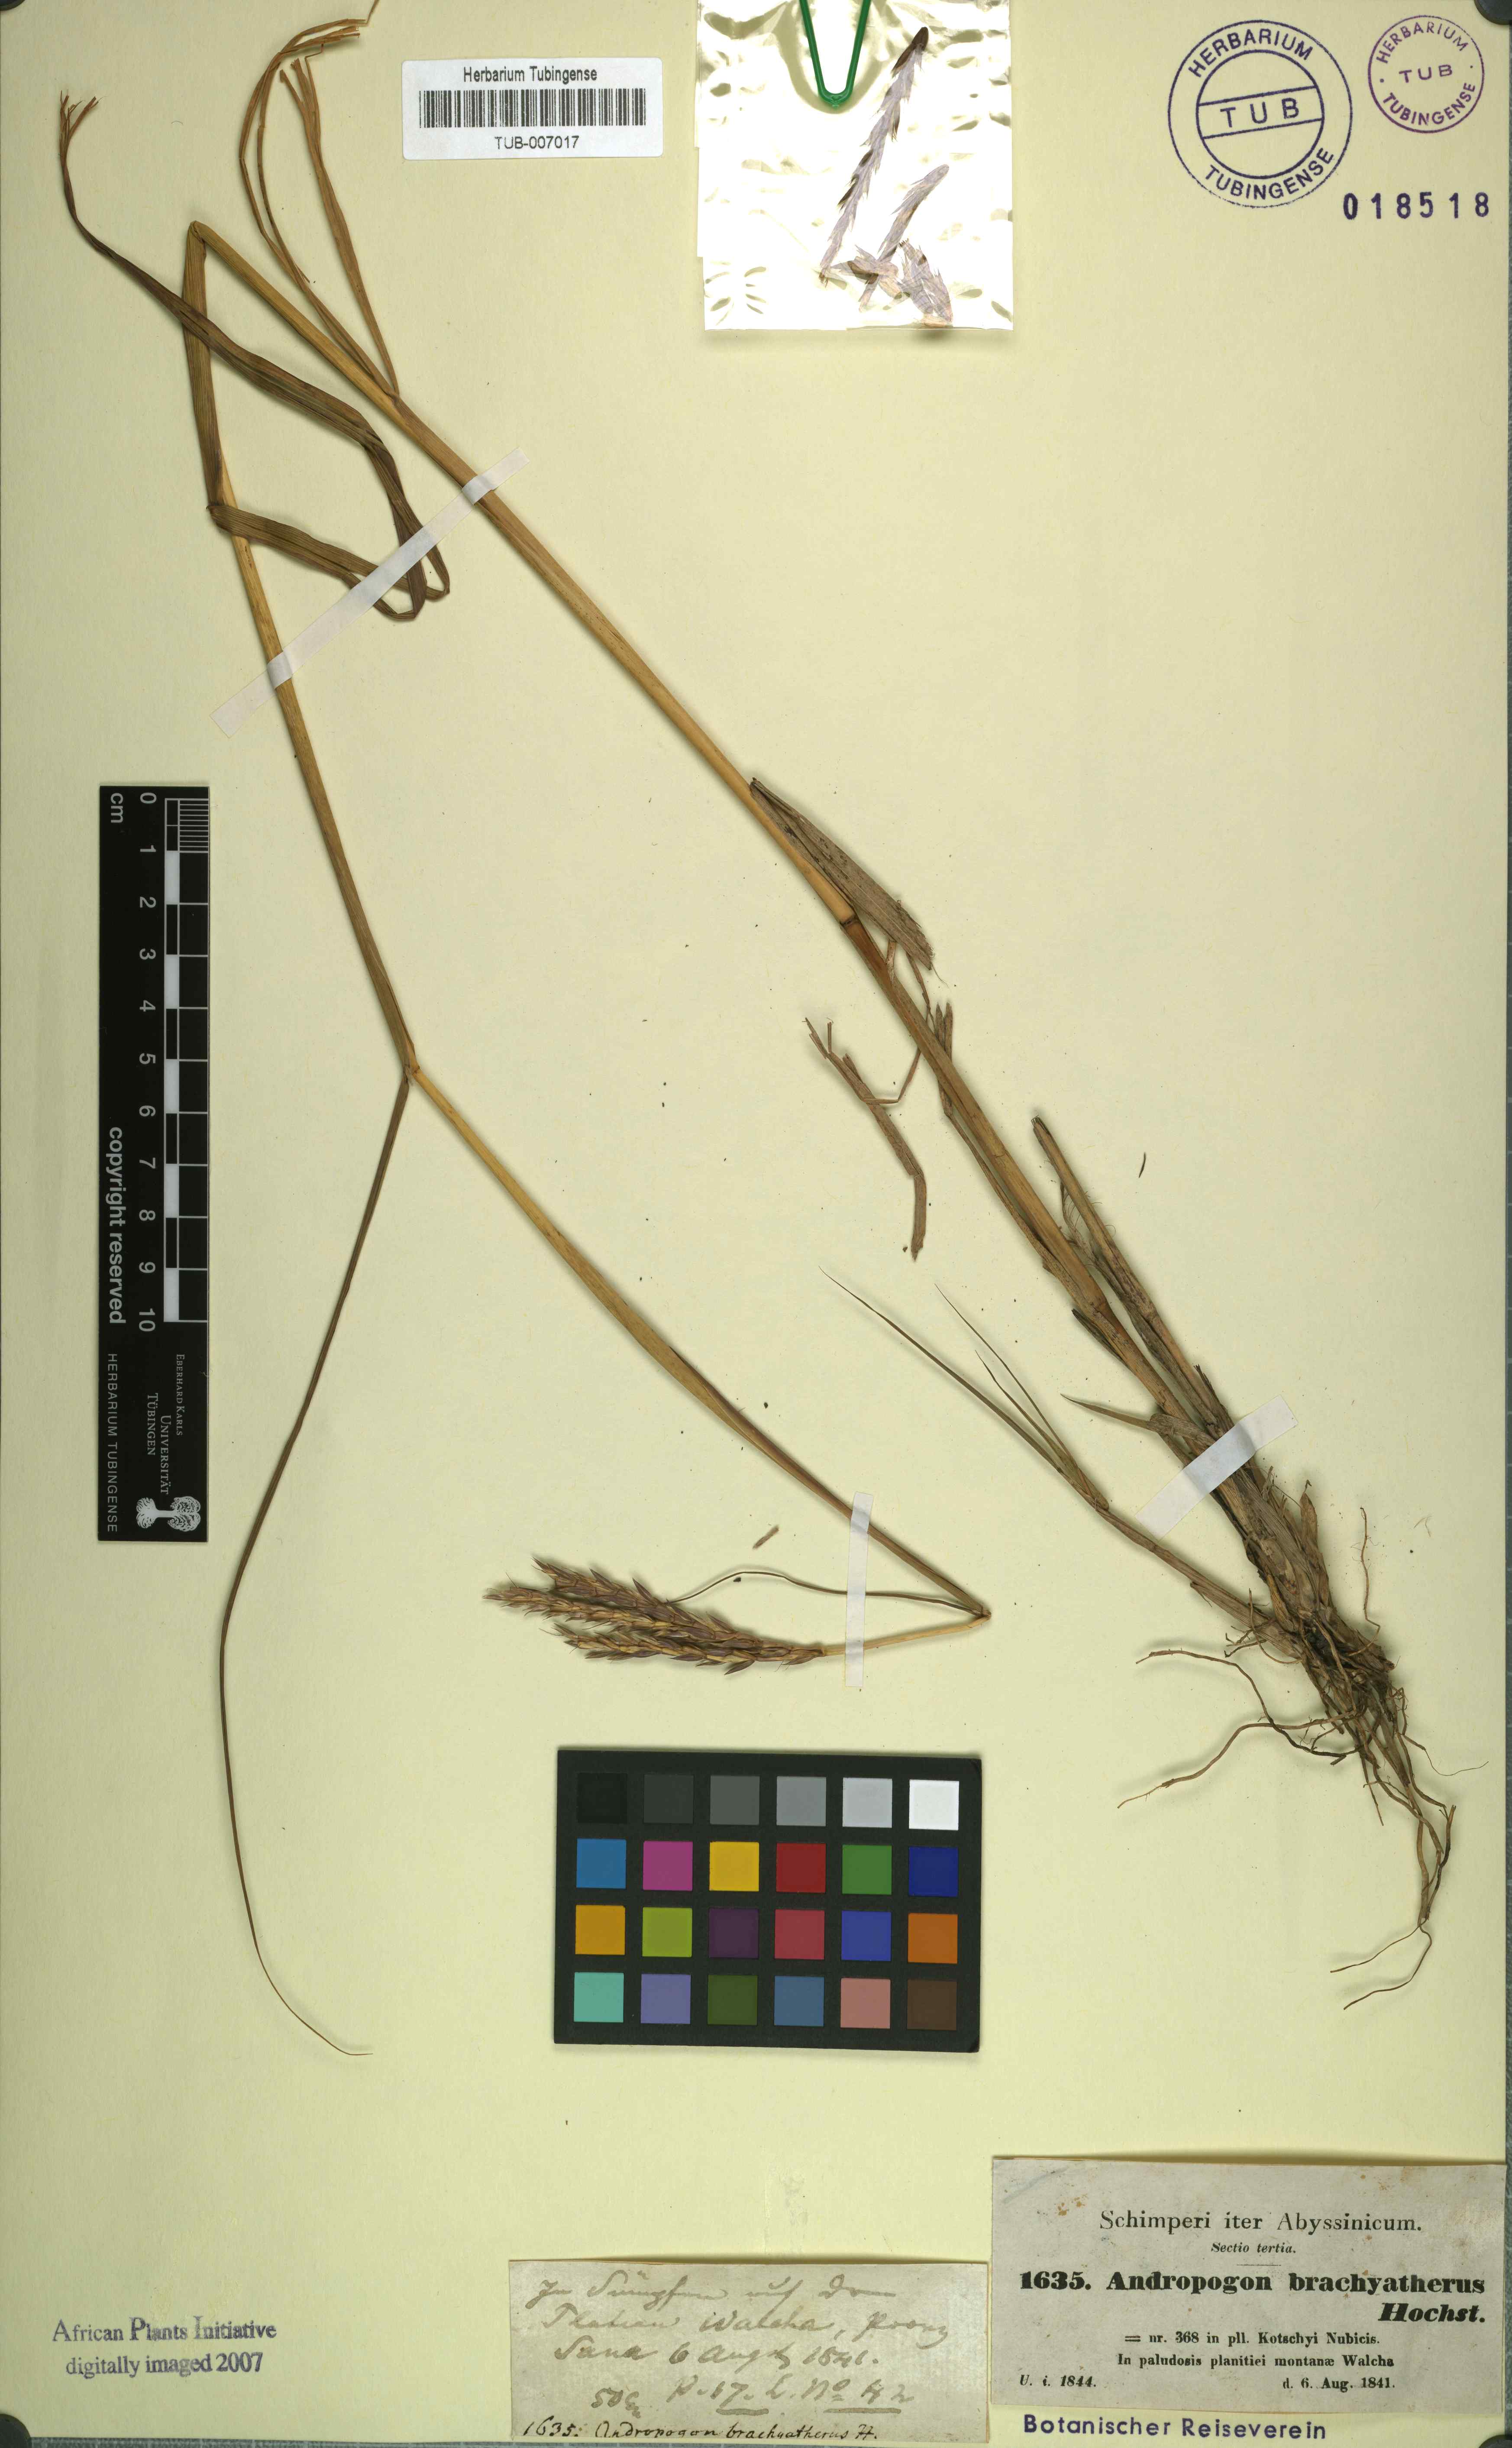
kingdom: Plantae
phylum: Tracheophyta
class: Liliopsida
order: Poales
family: Poaceae
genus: Ischaemum
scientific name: Ischaemum afrum
